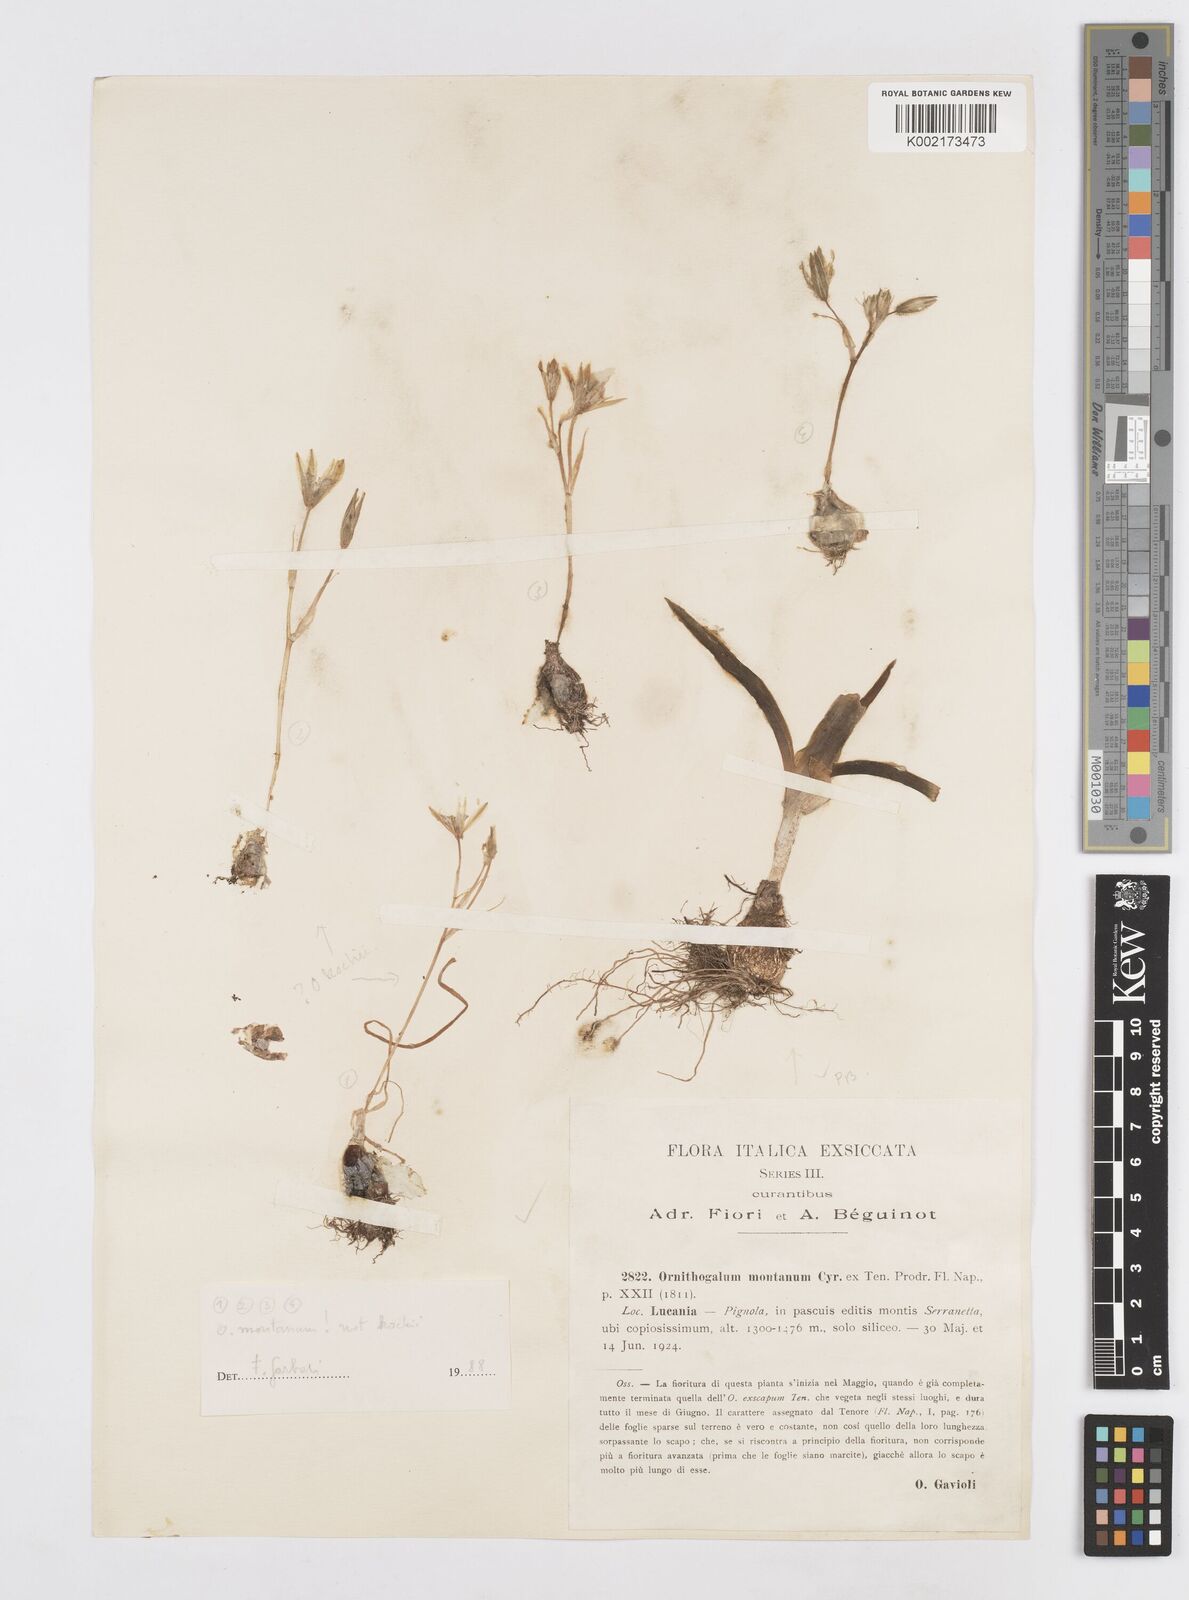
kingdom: Plantae
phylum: Tracheophyta
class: Liliopsida
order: Asparagales
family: Asparagaceae
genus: Ornithogalum
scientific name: Ornithogalum montanum
